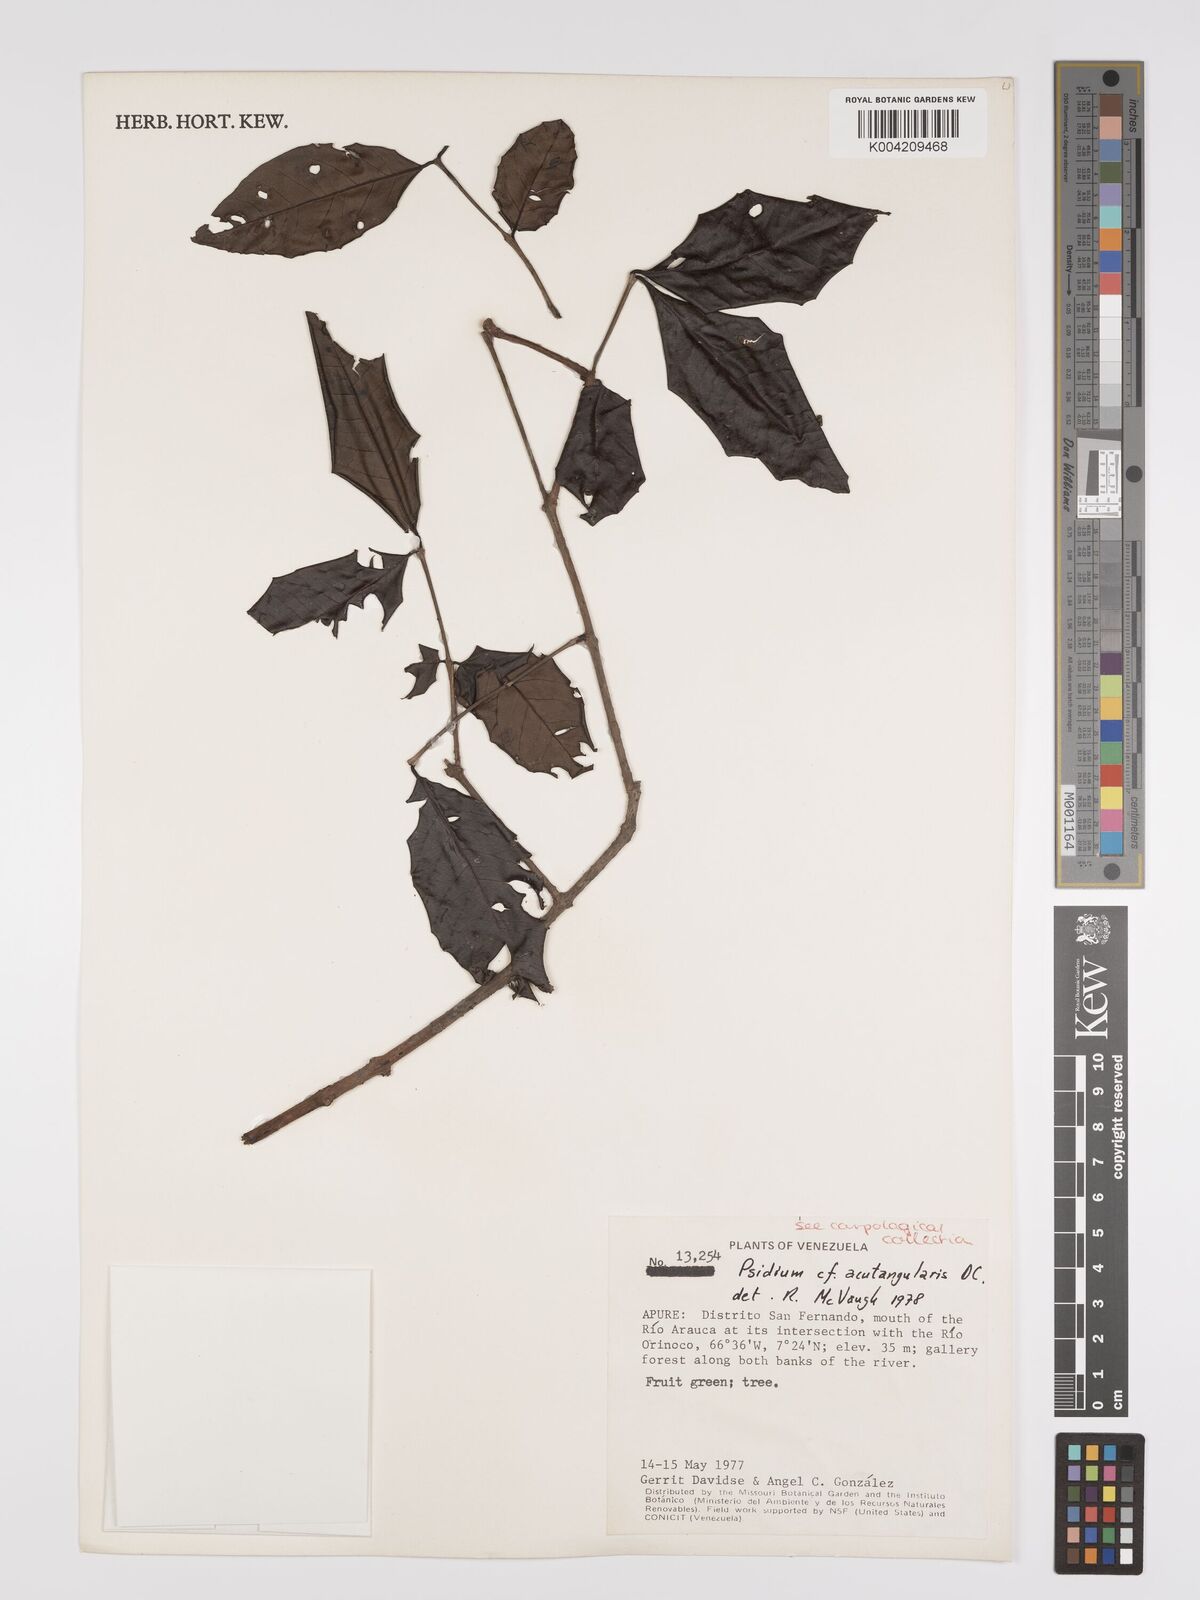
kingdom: Plantae
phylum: Tracheophyta
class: Magnoliopsida
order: Myrtales
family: Myrtaceae
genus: Psidium
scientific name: Psidium acutangulum
